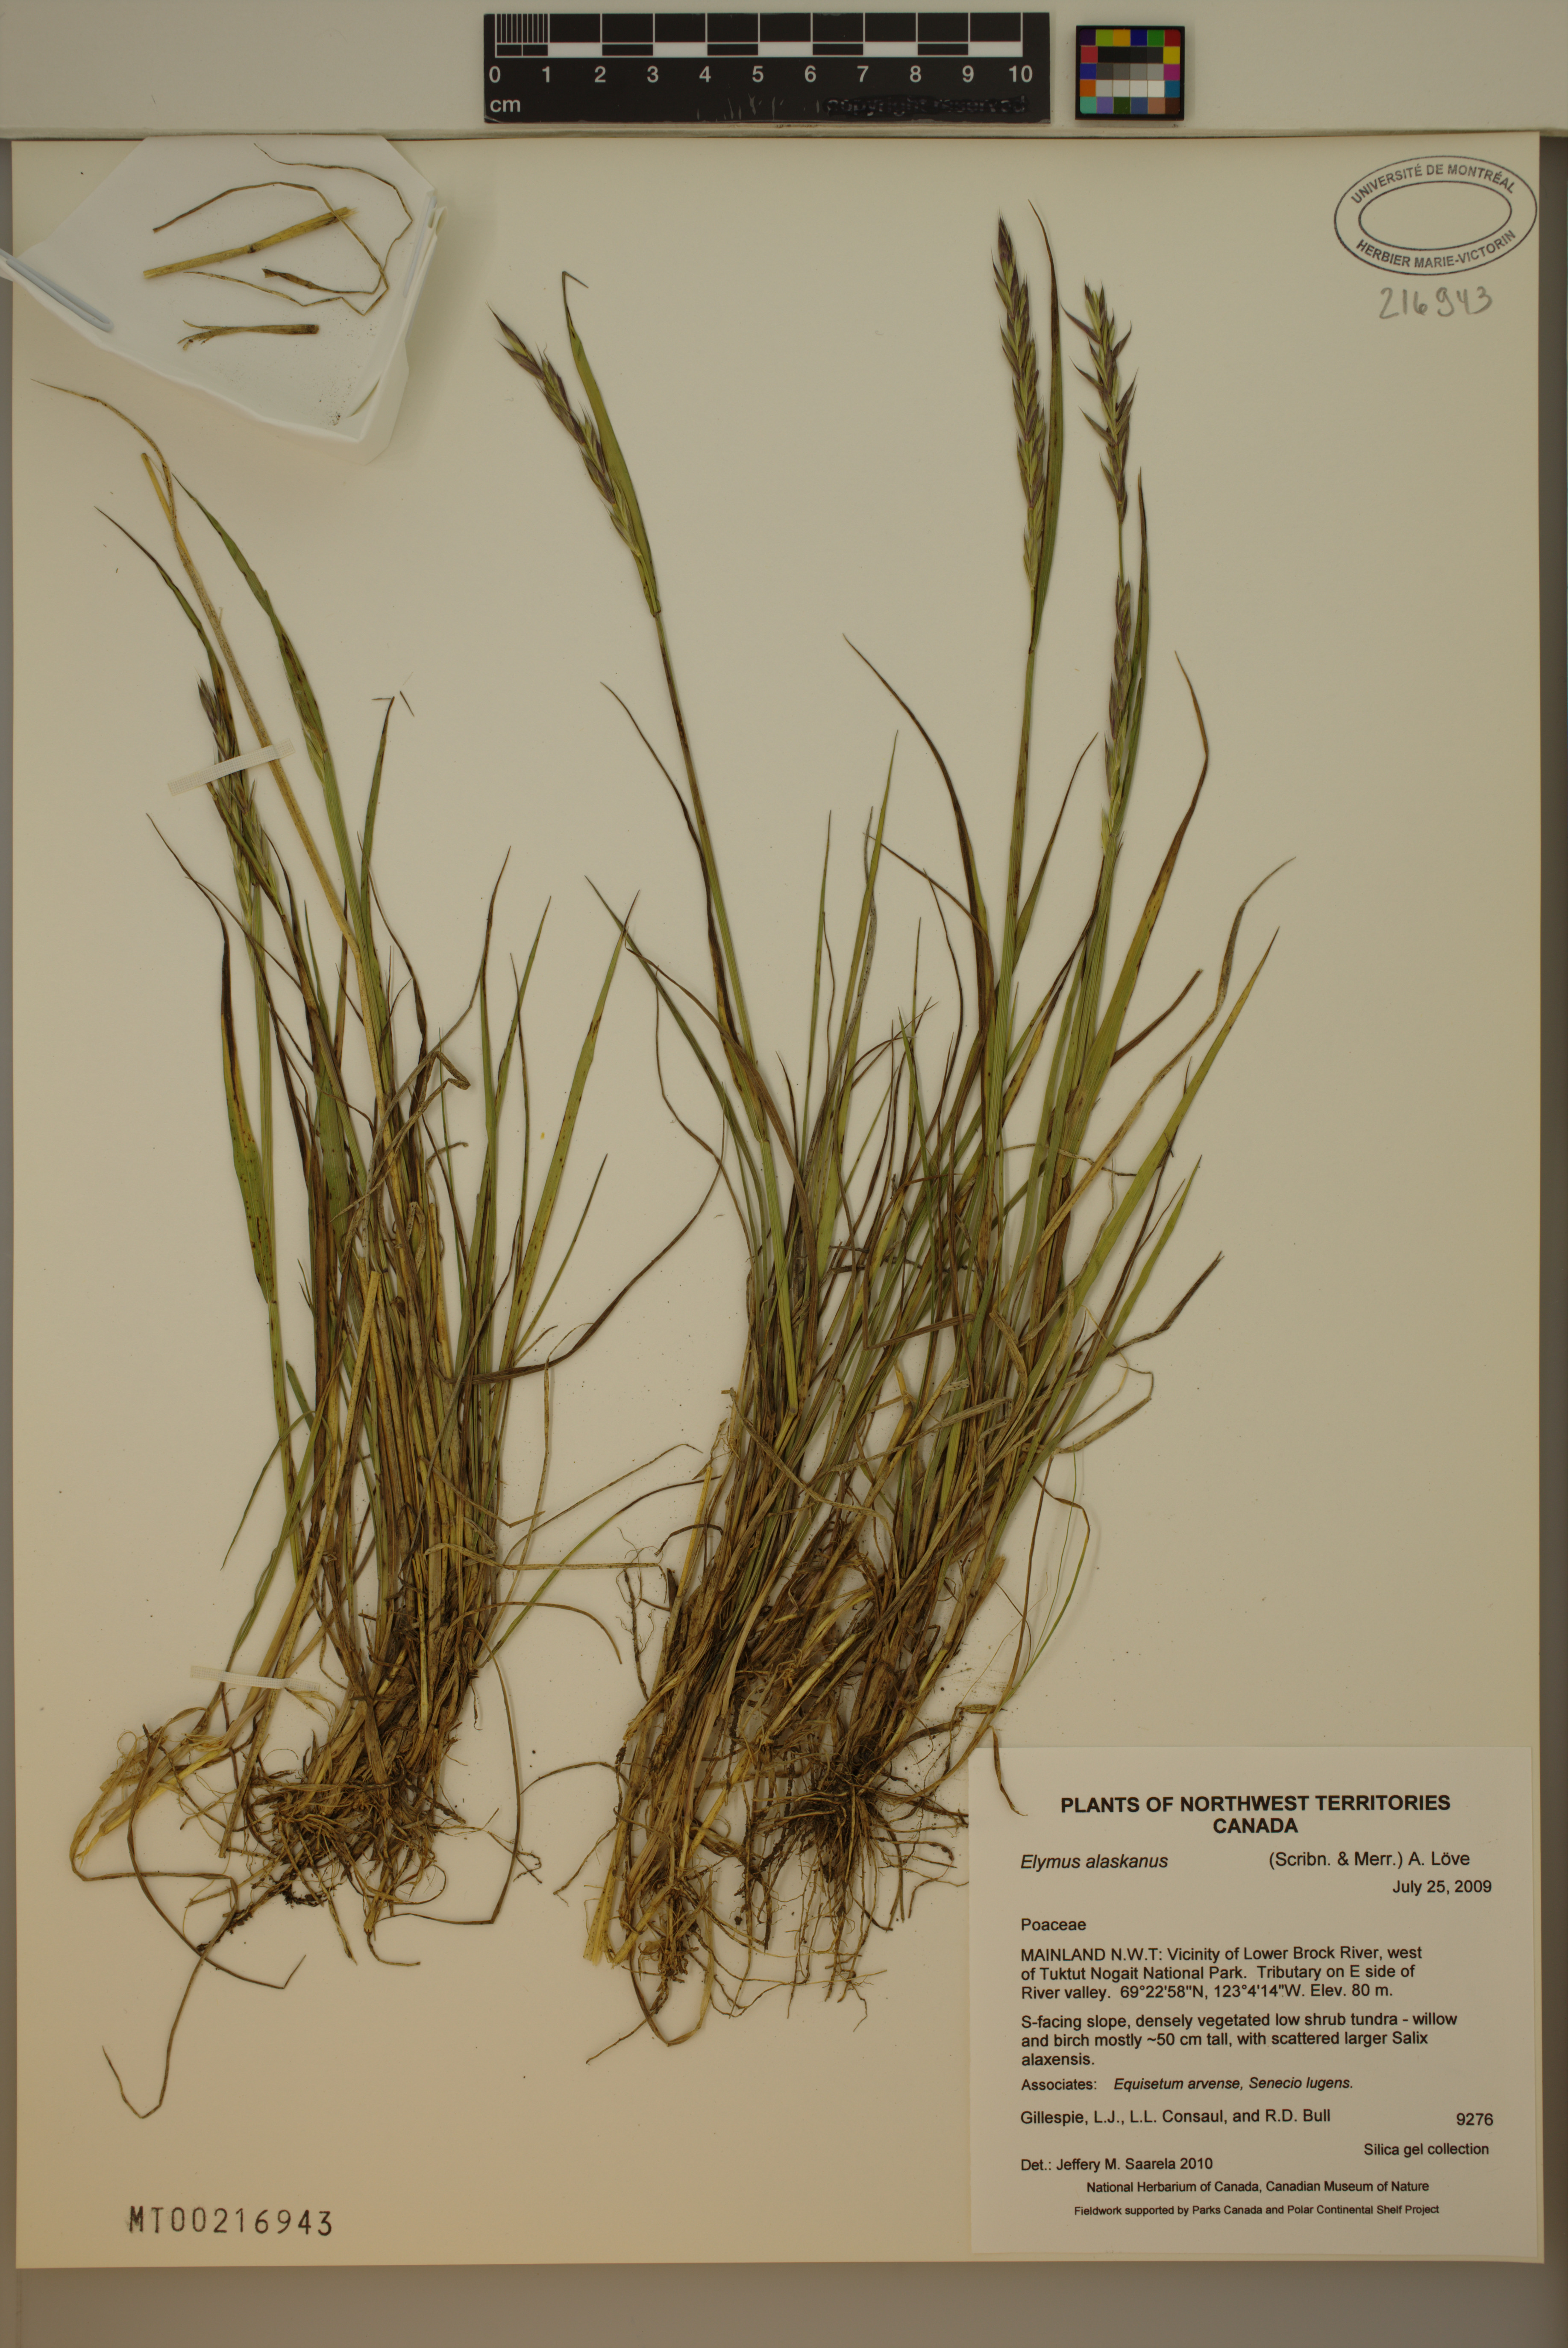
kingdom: Plantae
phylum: Tracheophyta
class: Liliopsida
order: Poales
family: Poaceae
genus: Elymus
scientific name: Elymus alaskanus
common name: Alaska wheatgrass
